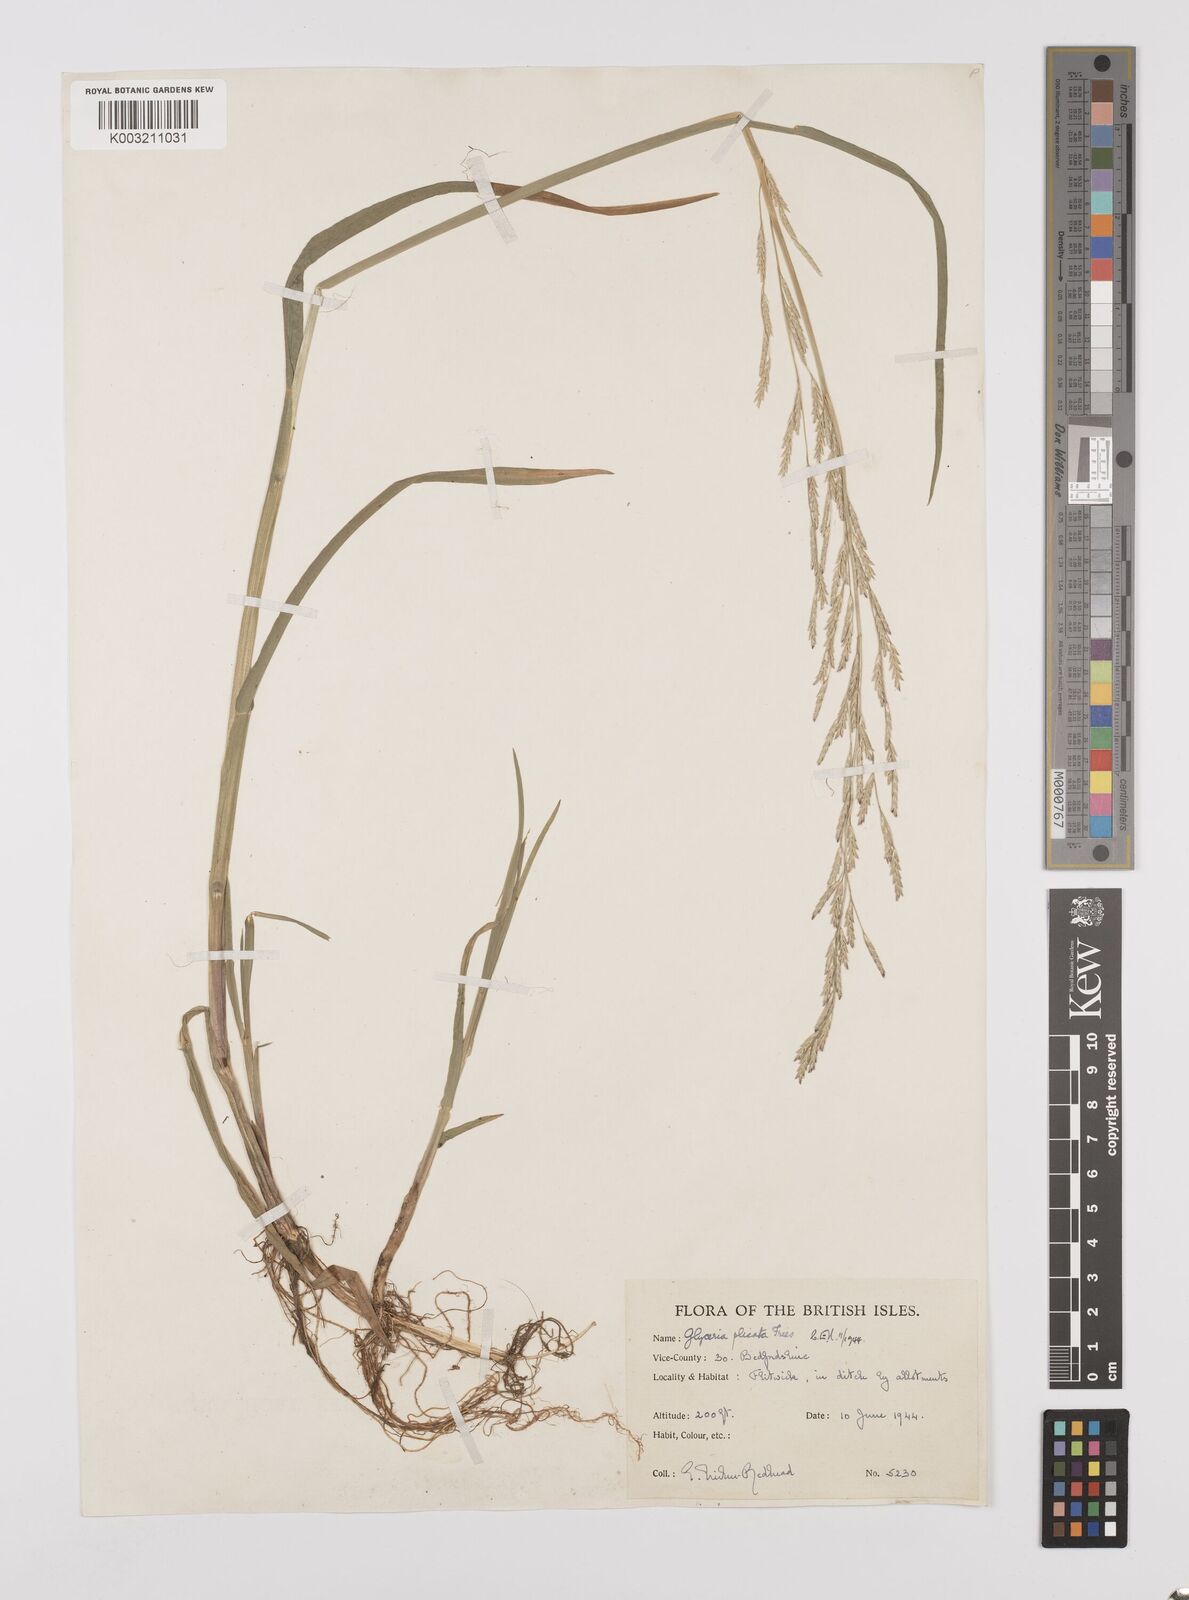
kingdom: Plantae
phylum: Tracheophyta
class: Liliopsida
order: Poales
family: Poaceae
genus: Glyceria
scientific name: Glyceria notata
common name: Plicate sweet-grass
